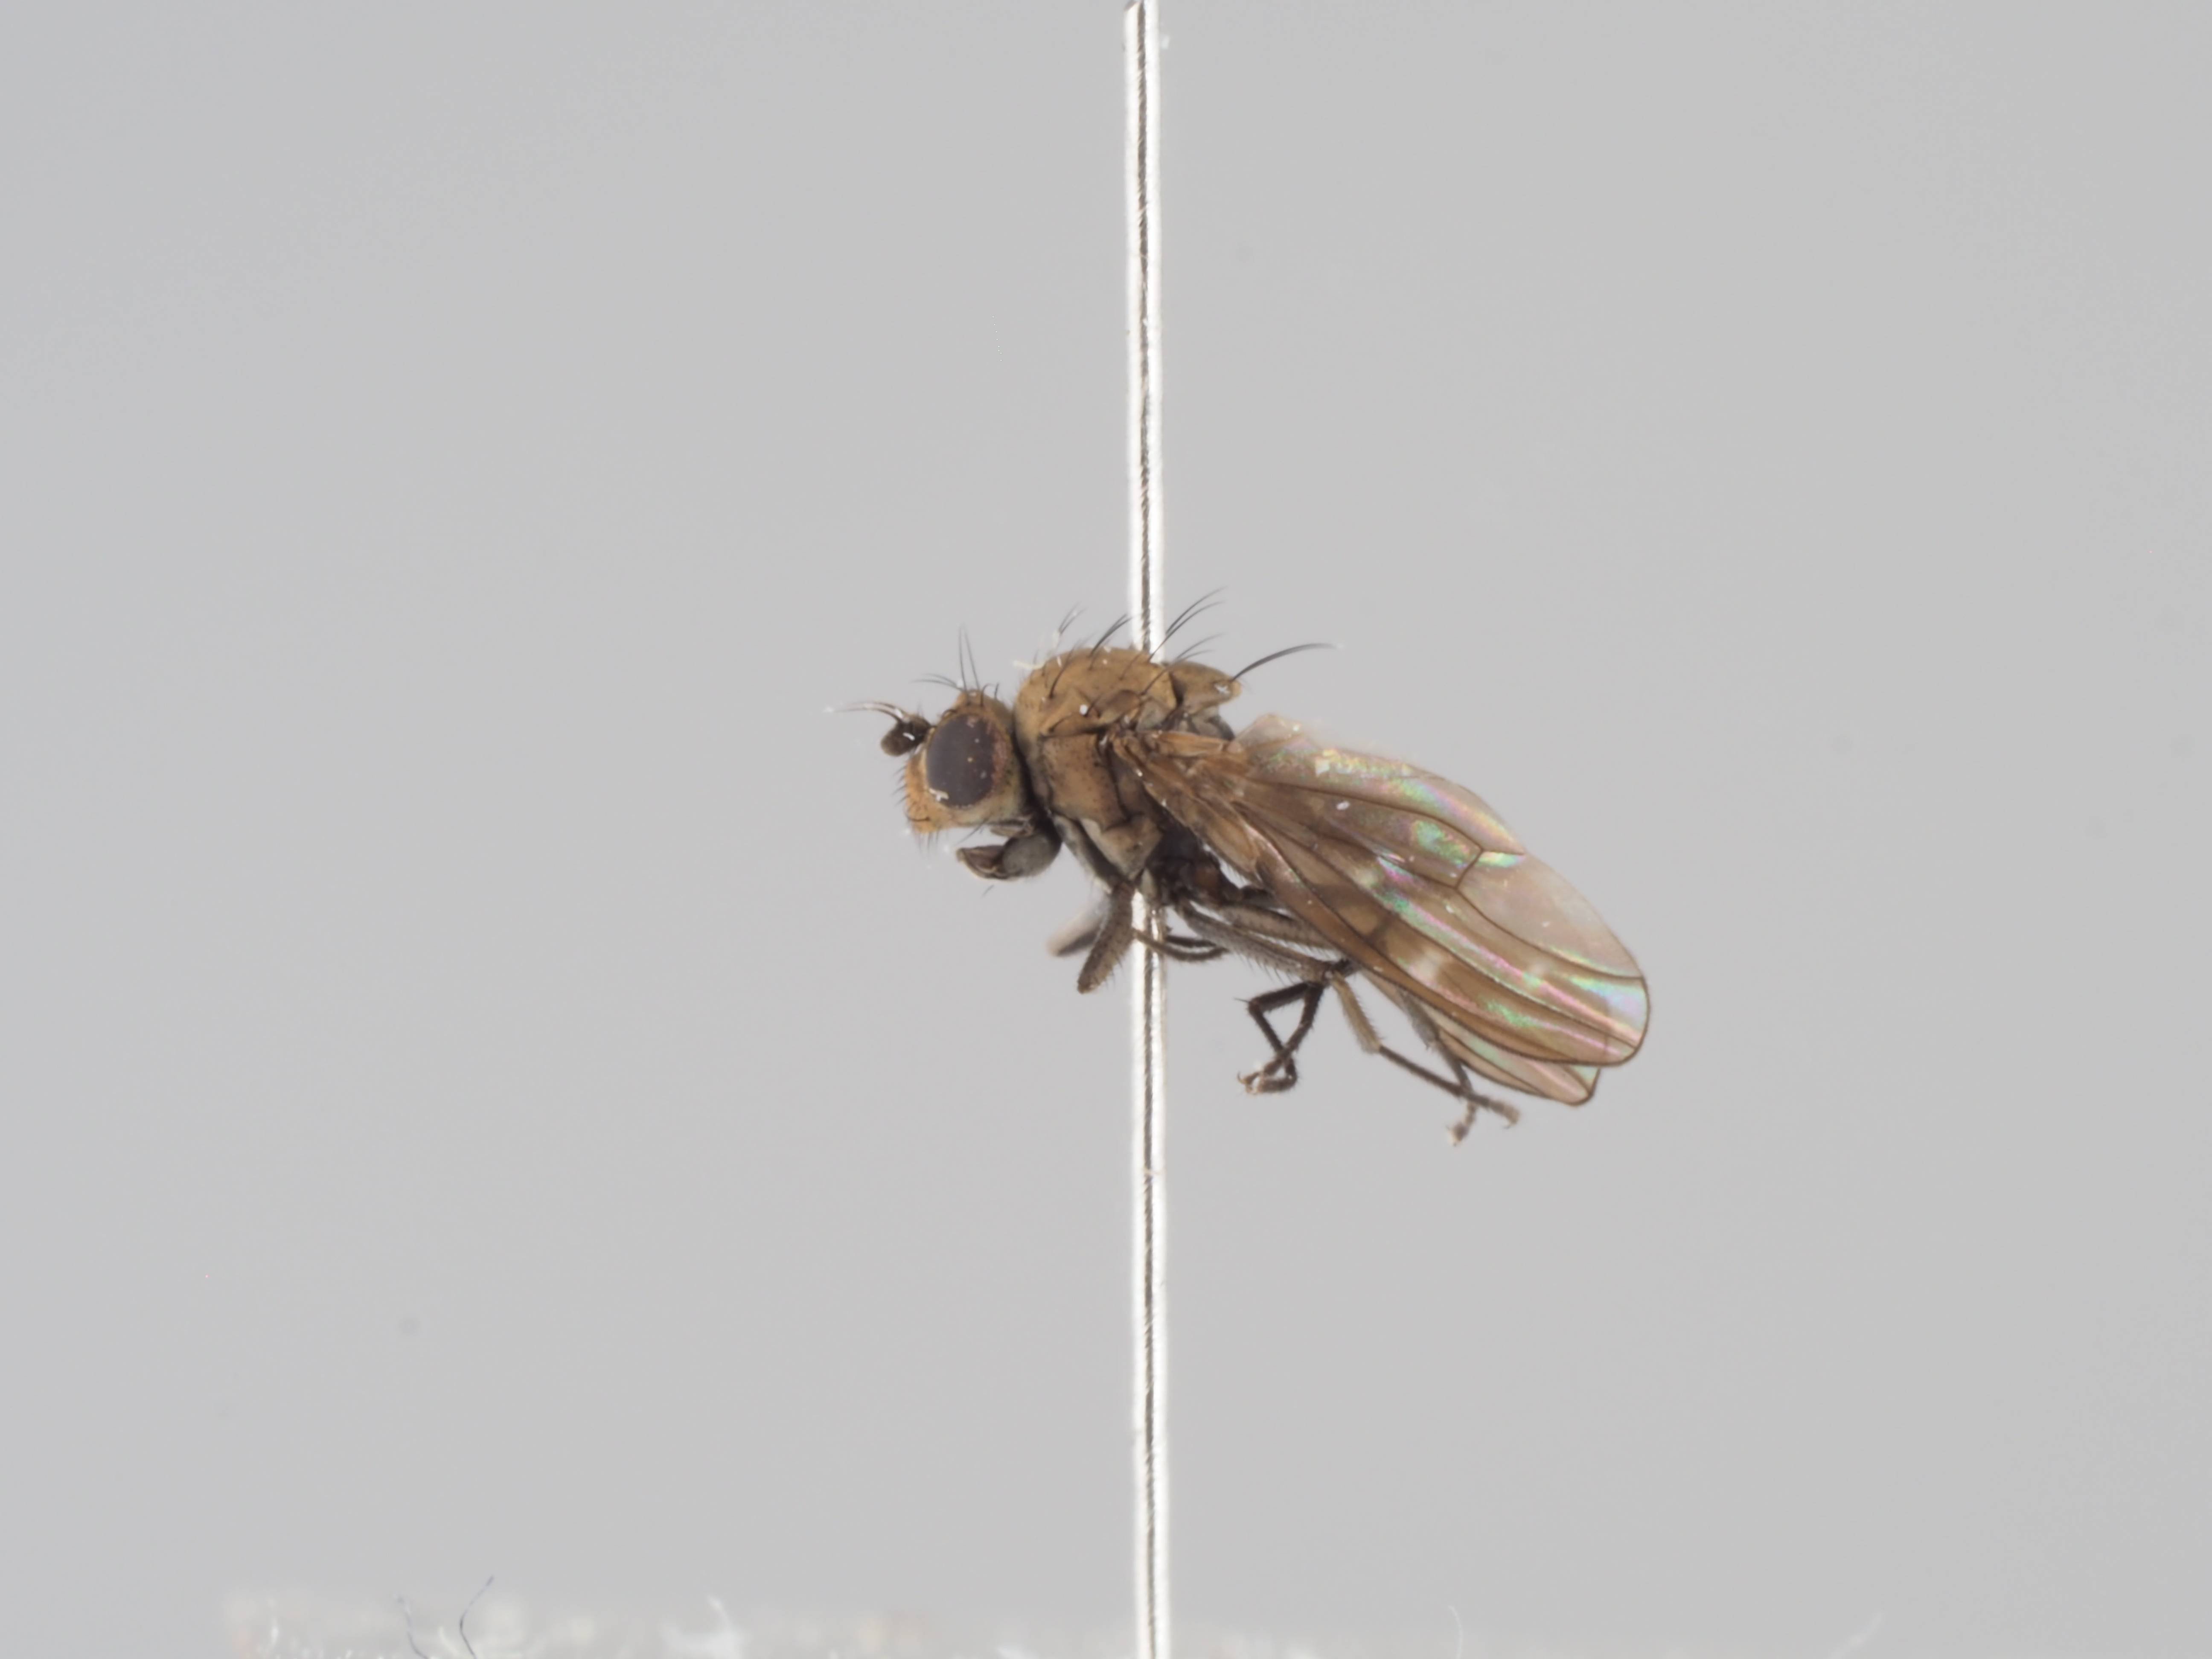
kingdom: Animalia
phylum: Arthropoda
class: Insecta
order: Diptera
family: Ephydridae
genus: Scatella
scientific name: Scatella stagnalis
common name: Shore fly
